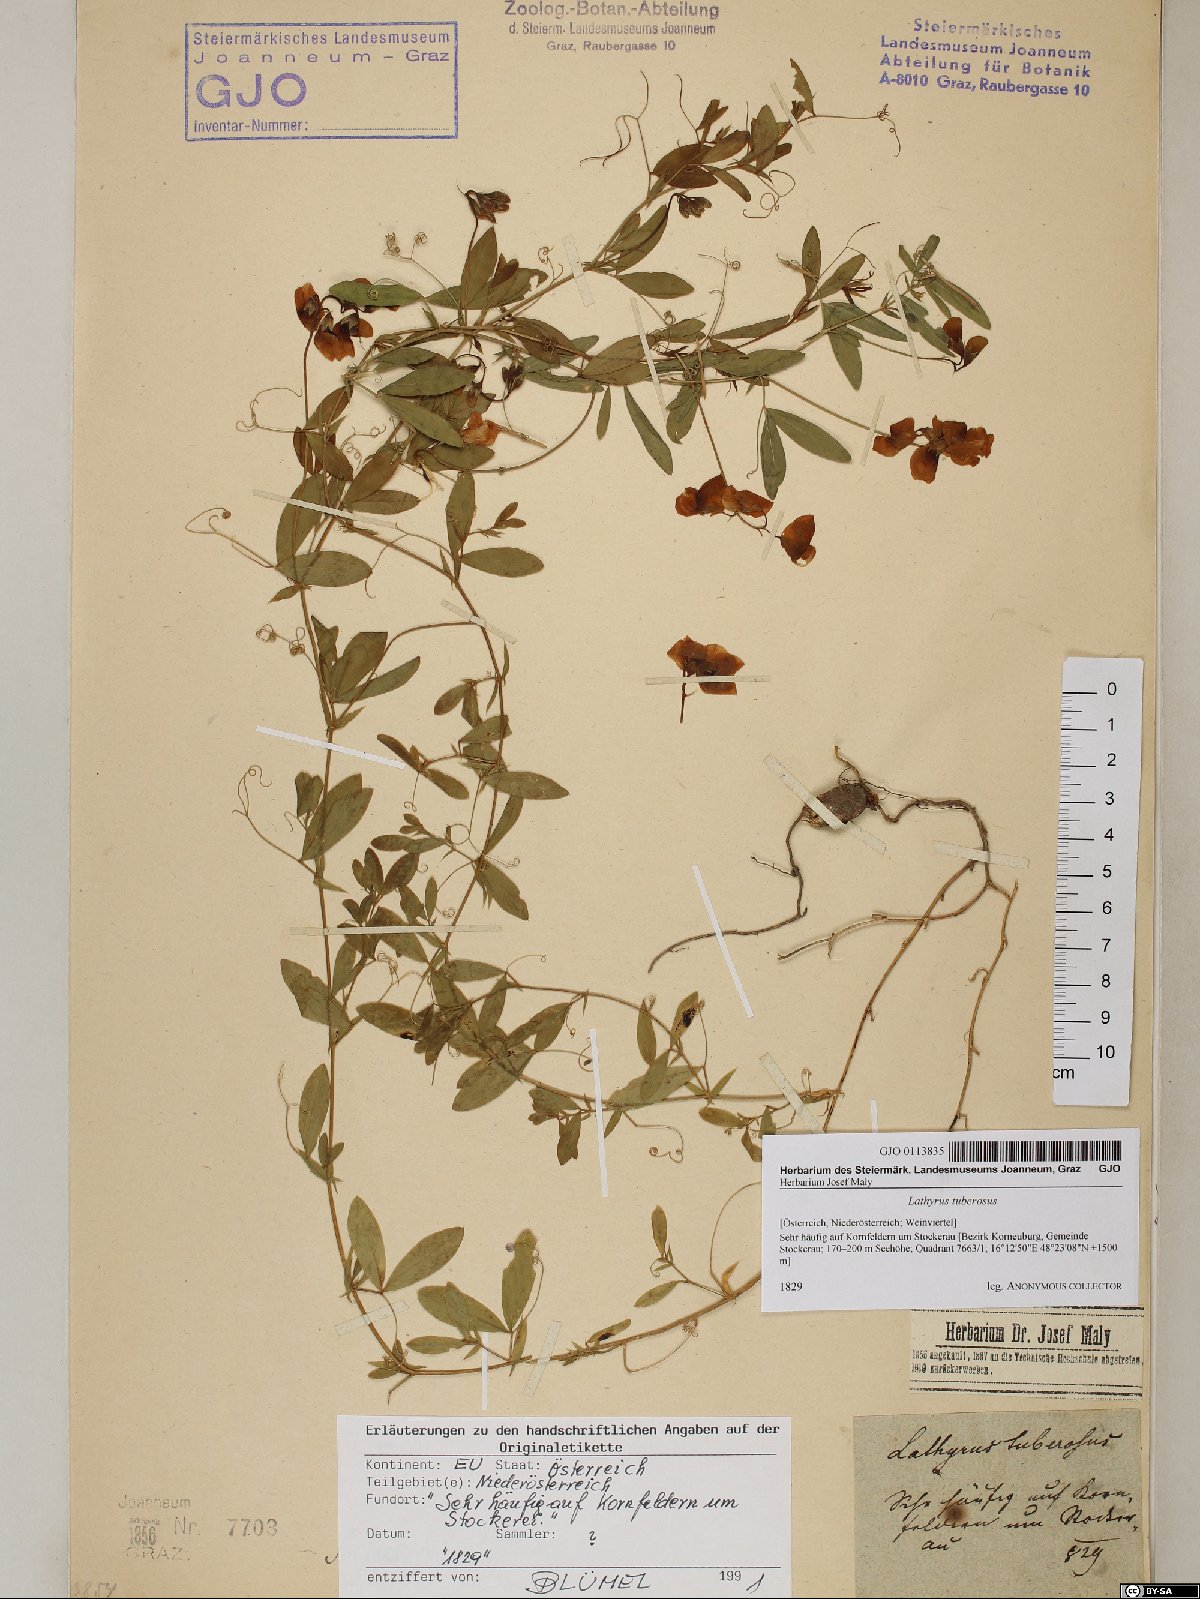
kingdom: Plantae
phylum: Tracheophyta
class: Magnoliopsida
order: Fabales
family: Fabaceae
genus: Lathyrus
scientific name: Lathyrus tuberosus
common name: Tuberous pea
